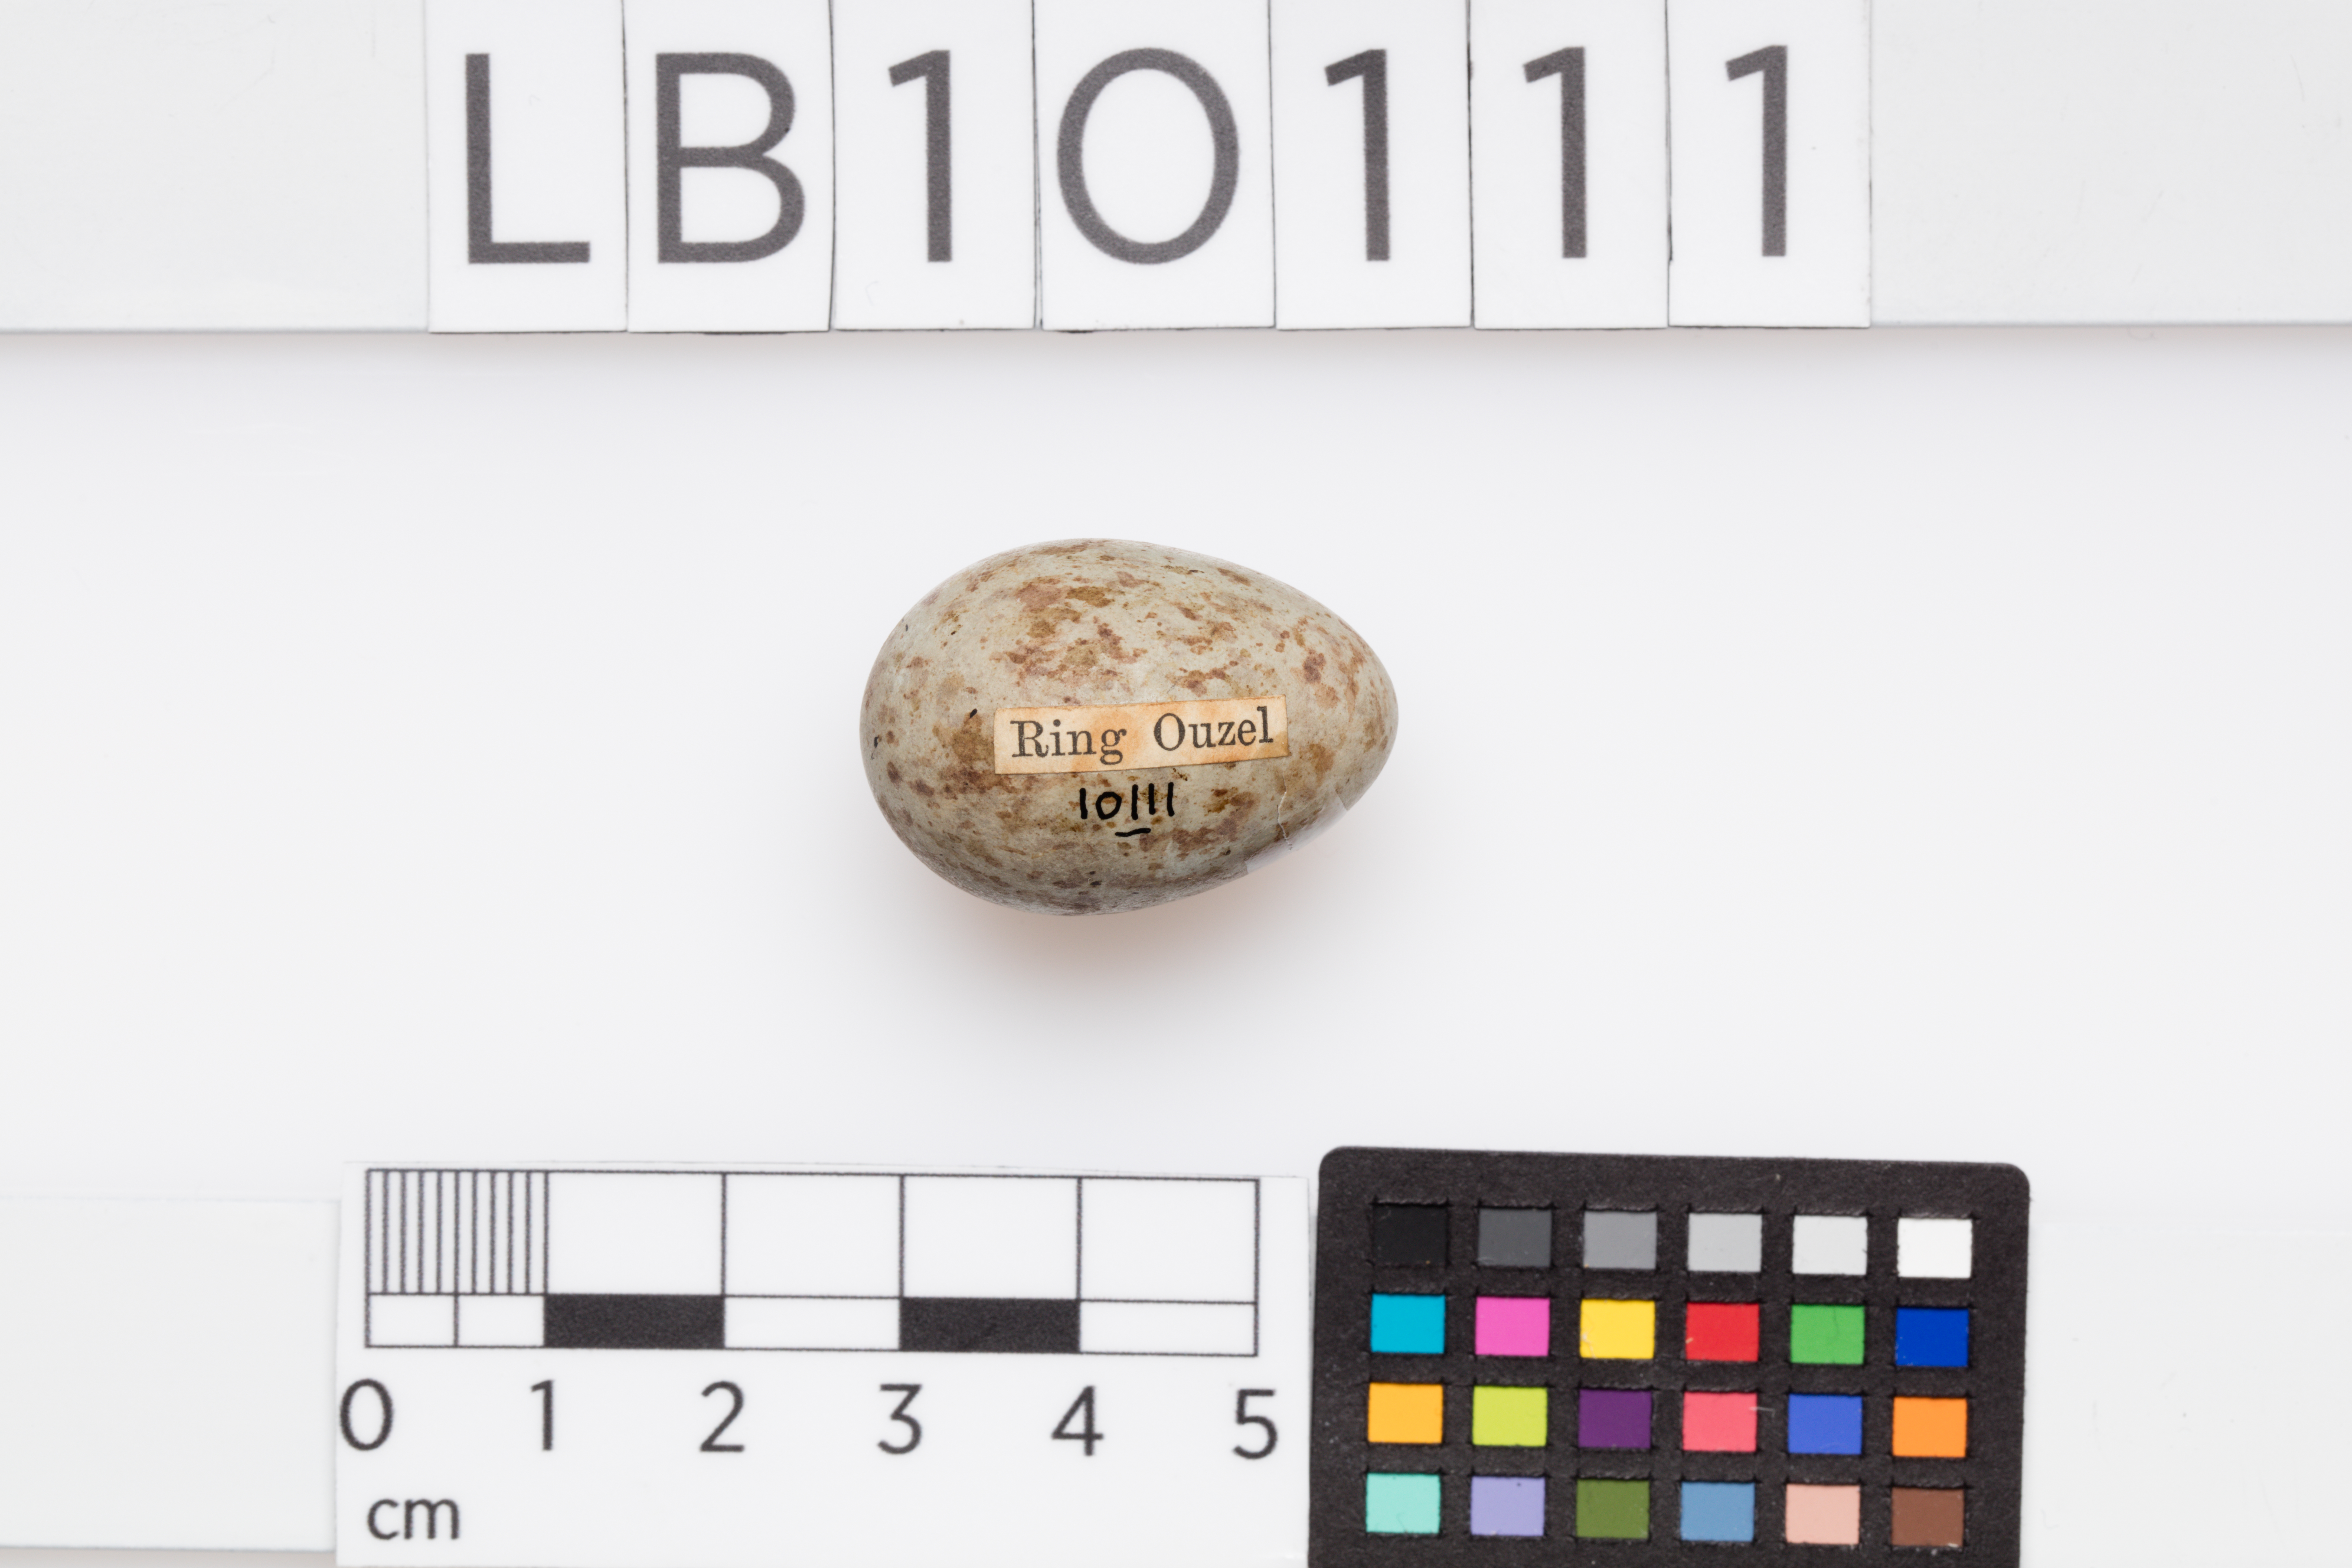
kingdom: Animalia
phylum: Chordata
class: Aves
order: Passeriformes
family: Turdidae
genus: Turdus
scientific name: Turdus torquatus
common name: Ring ouzel
